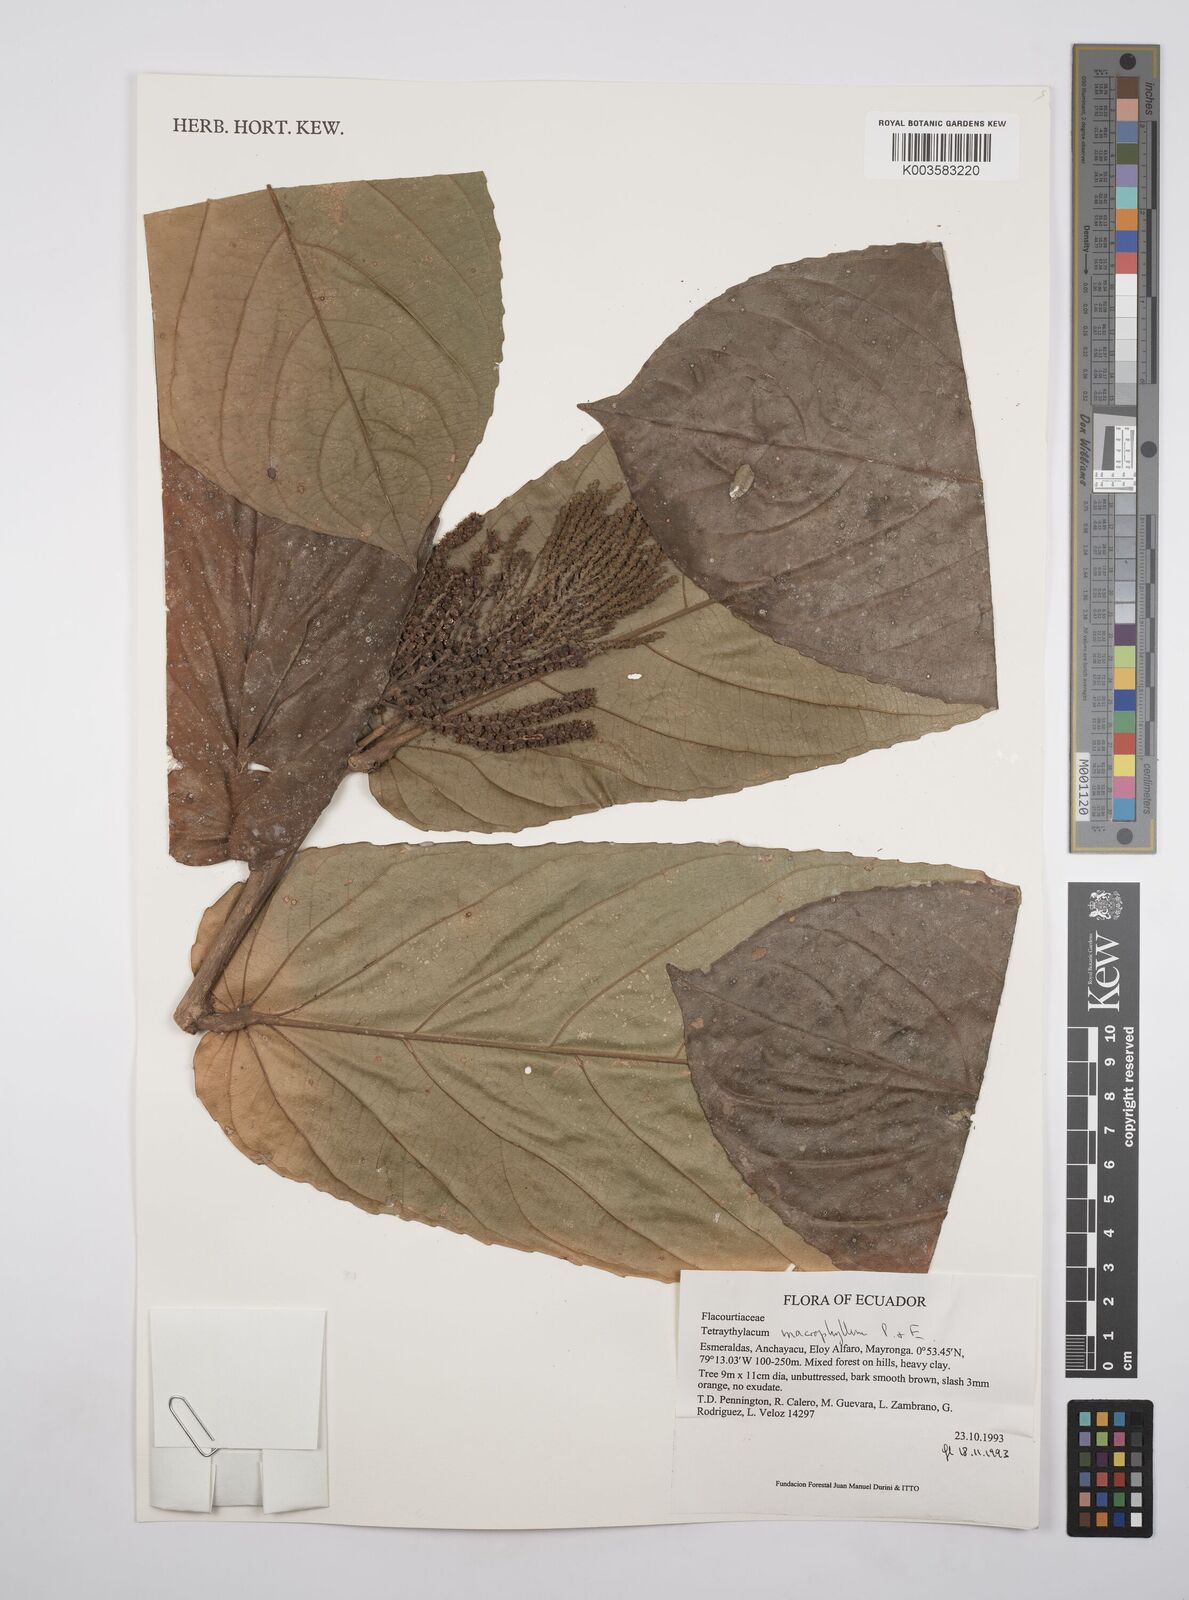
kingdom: Plantae
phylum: Tracheophyta
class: Magnoliopsida
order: Malpighiales
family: Salicaceae
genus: Tetrathylacium
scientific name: Tetrathylacium macrophyllum
